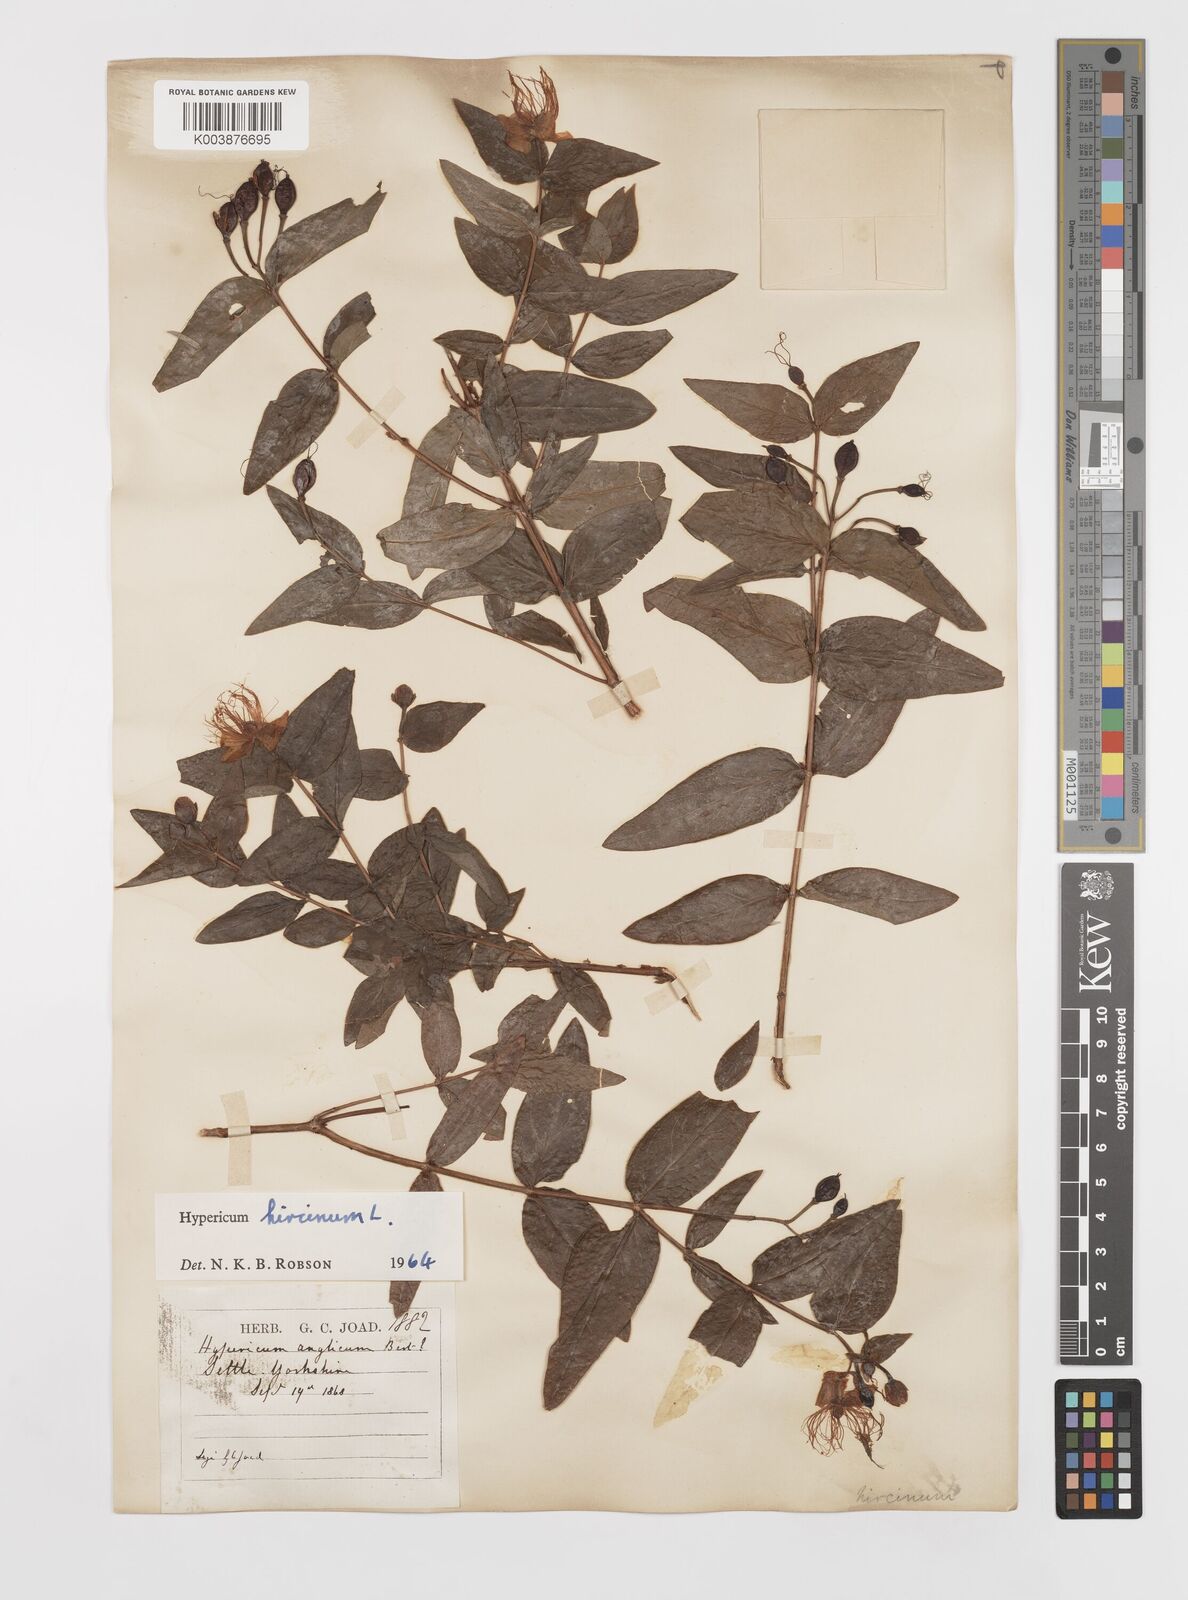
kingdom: Plantae
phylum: Tracheophyta
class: Magnoliopsida
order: Malpighiales
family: Hypericaceae
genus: Hypericum
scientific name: Hypericum hircinum
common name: Stinking tutsan
